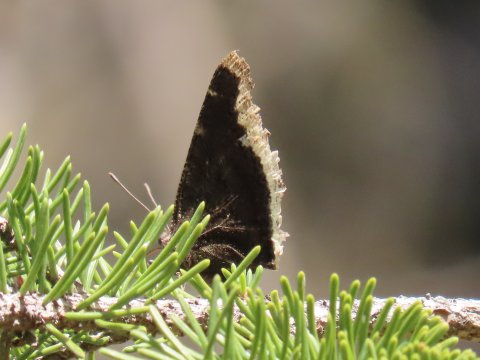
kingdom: Animalia
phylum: Arthropoda
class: Insecta
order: Lepidoptera
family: Nymphalidae
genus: Nymphalis
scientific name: Nymphalis antiopa
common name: Mourning Cloak
